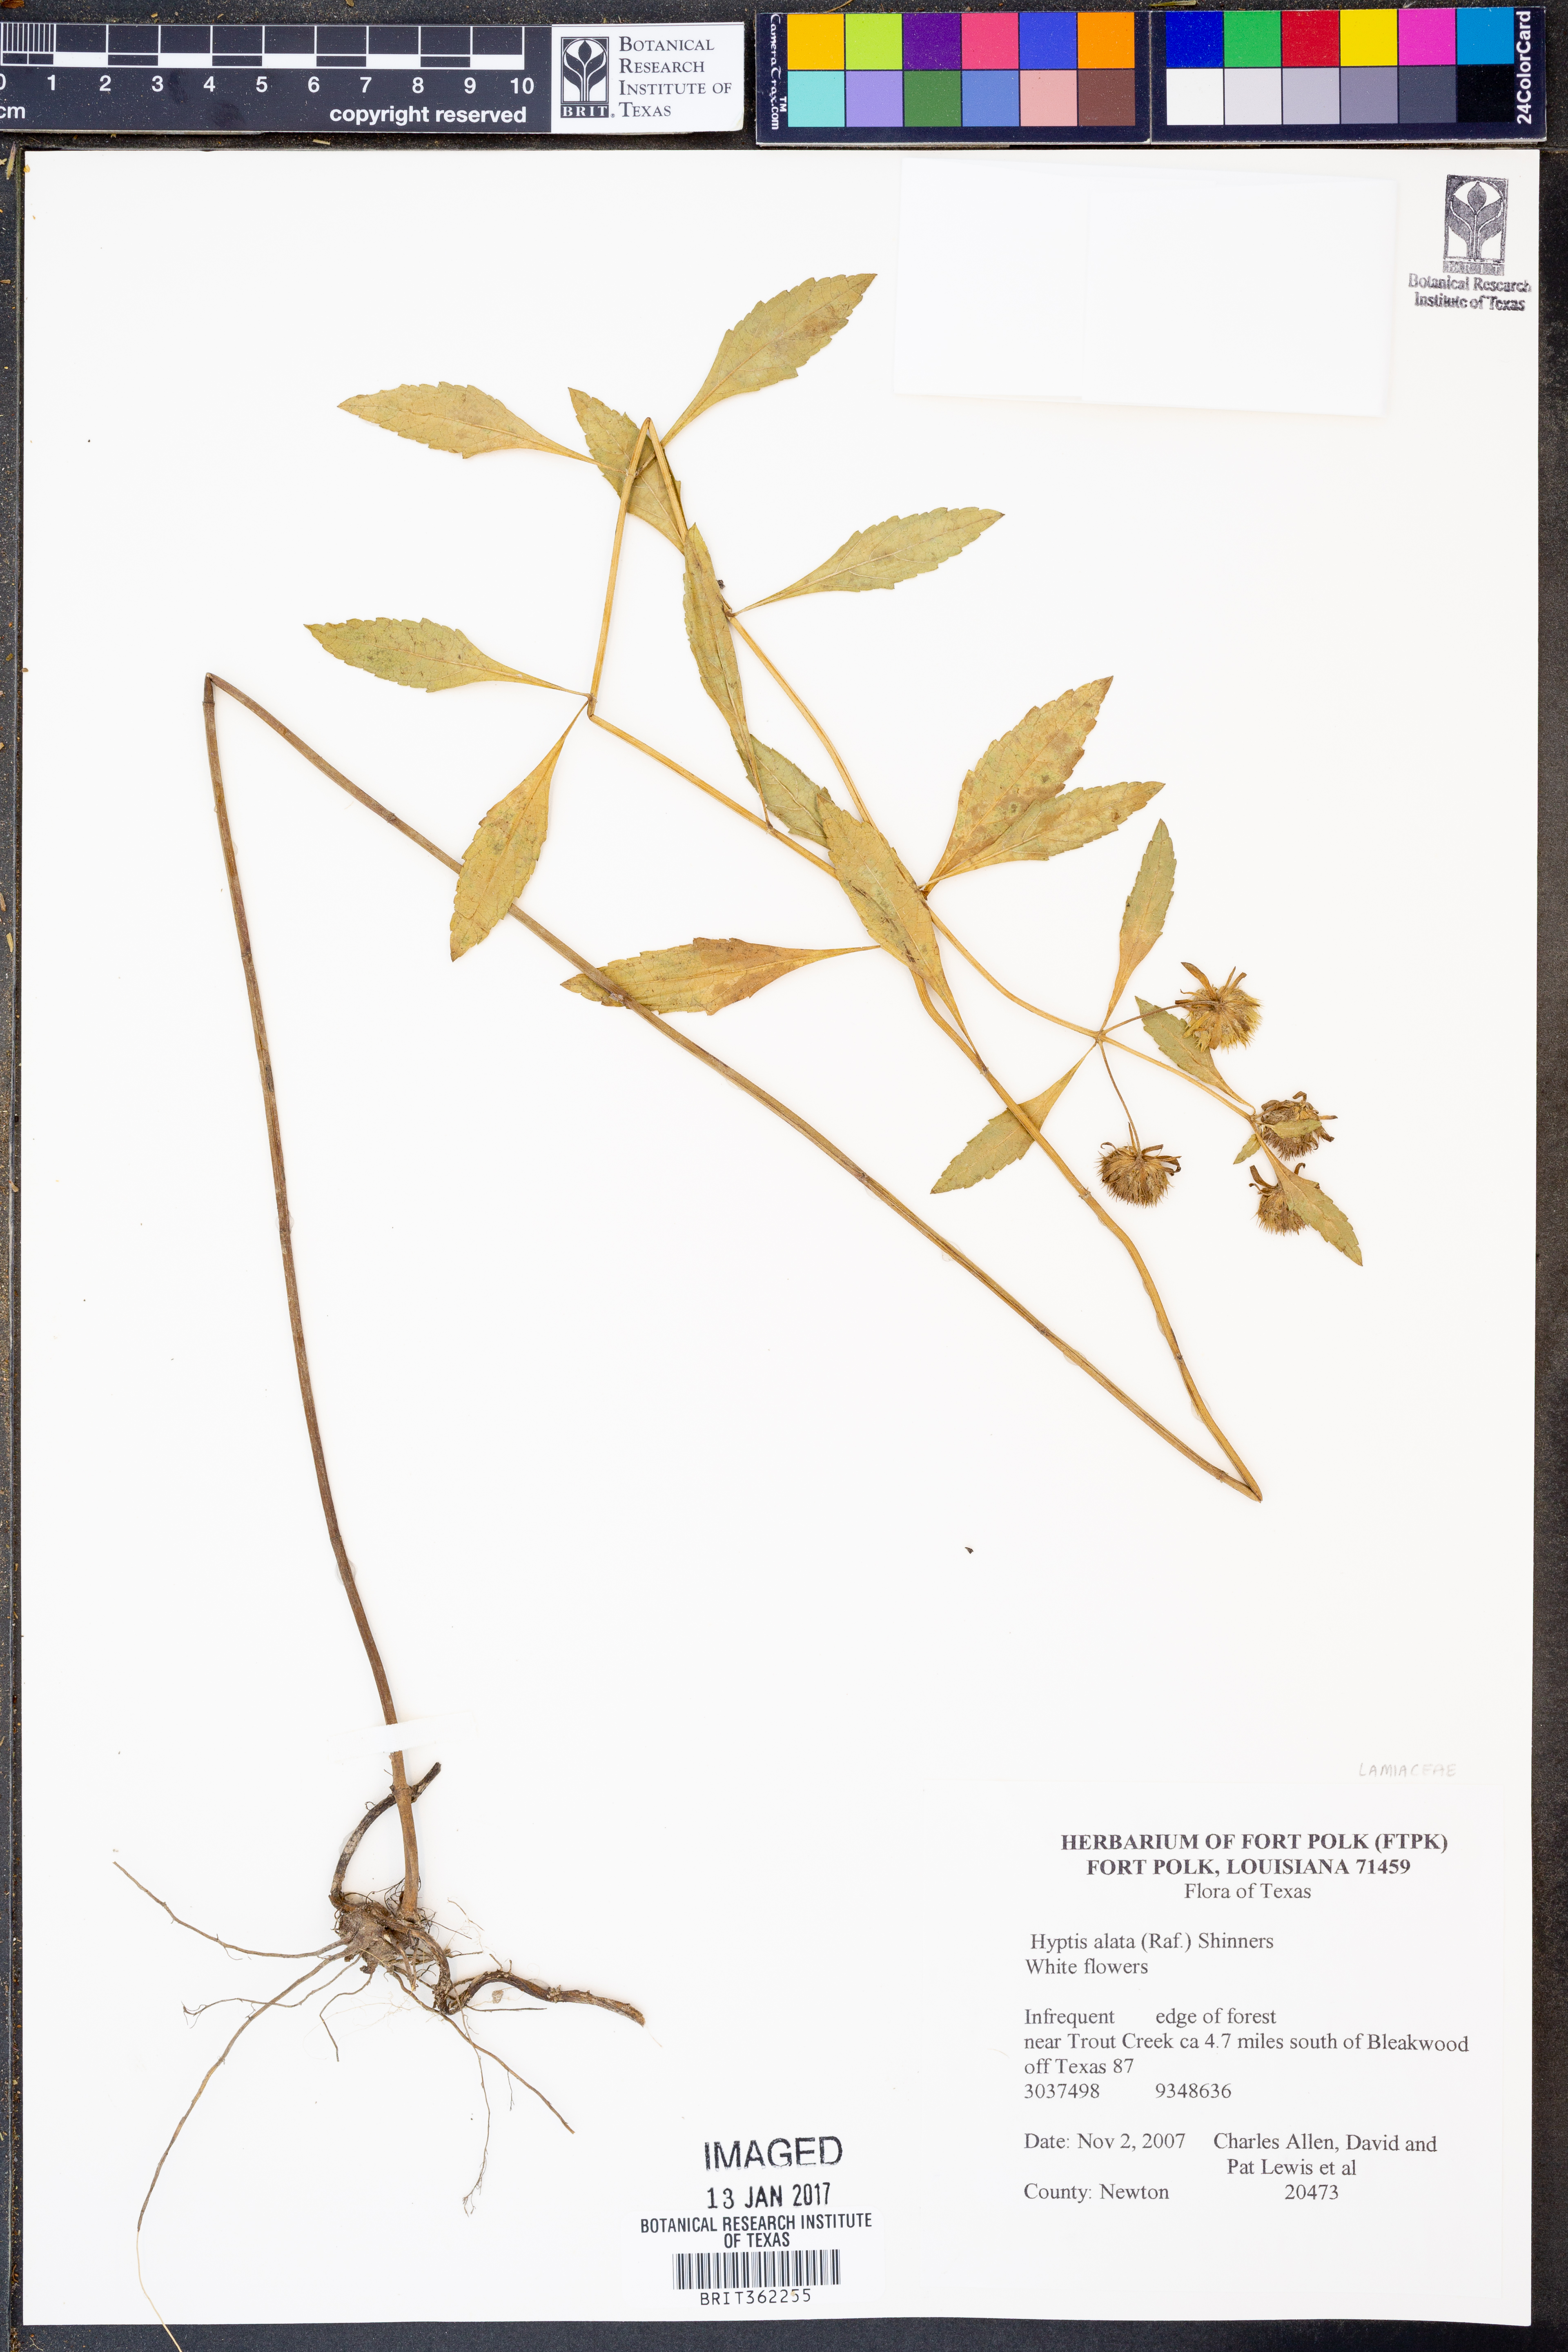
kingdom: Plantae
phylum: Tracheophyta
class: Magnoliopsida
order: Lamiales
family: Lamiaceae
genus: Hyptis
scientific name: Hyptis alata
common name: Cluster bush-mint
